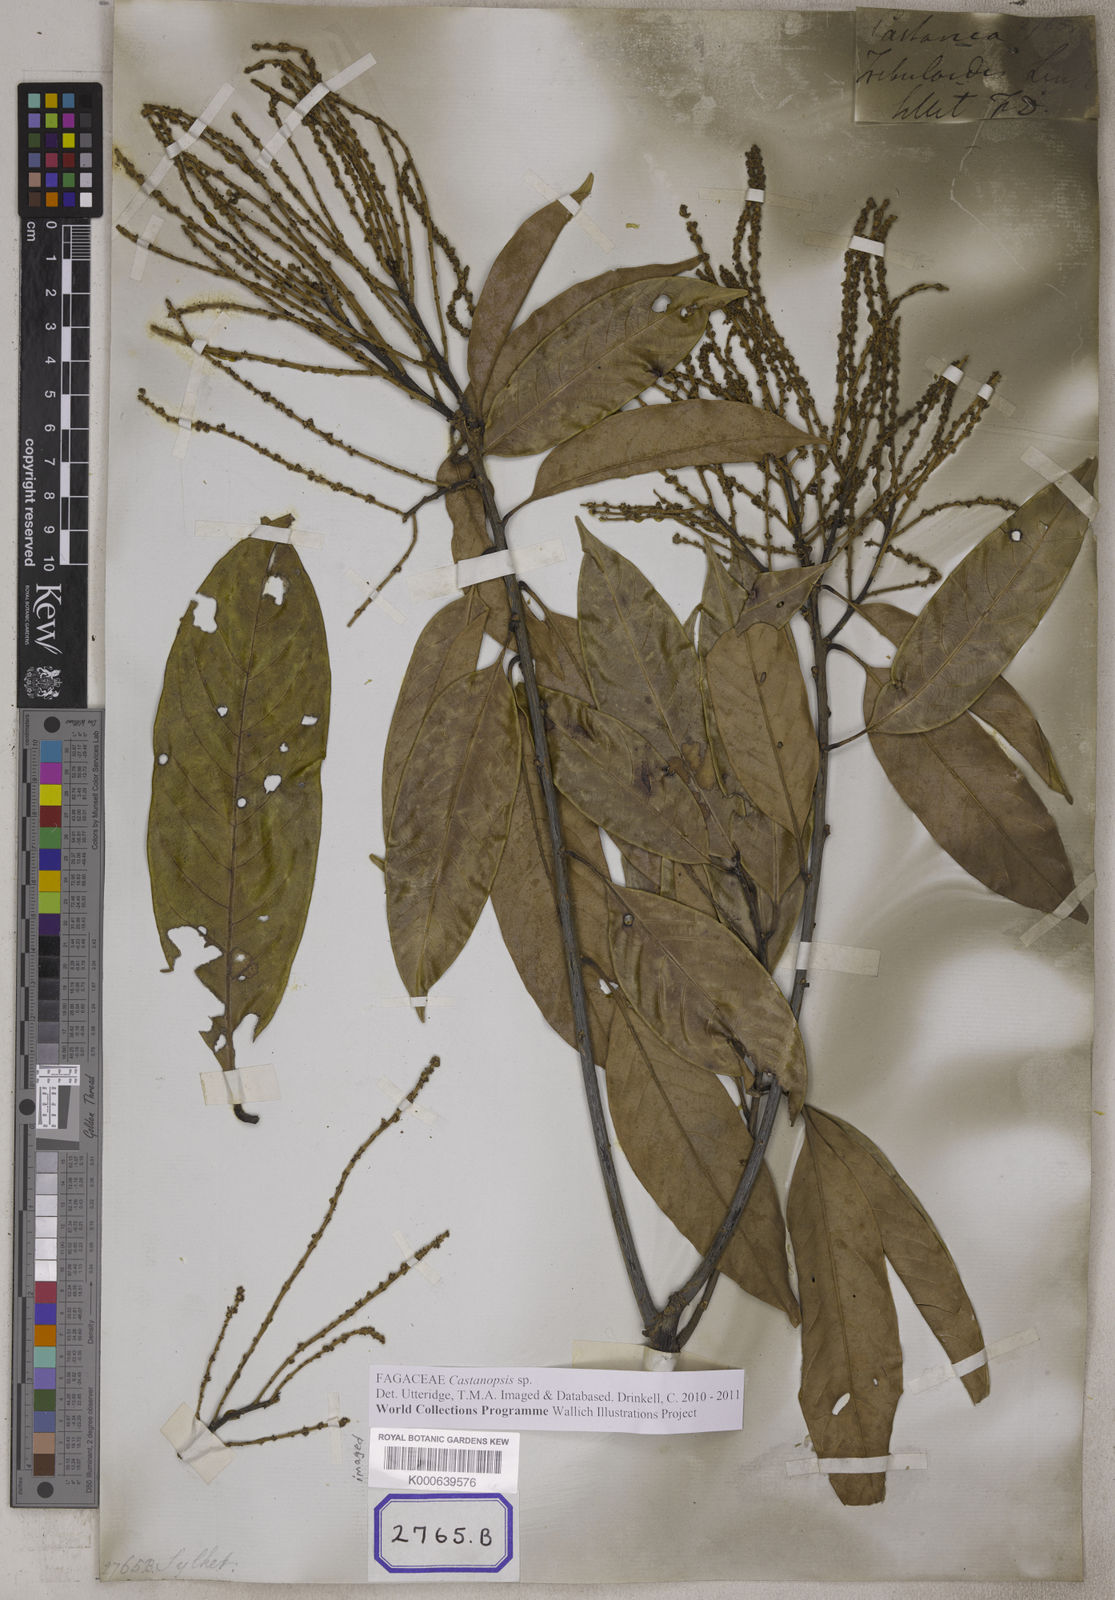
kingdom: Plantae
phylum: Tracheophyta
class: Magnoliopsida
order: Fagales
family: Fagaceae
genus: Castanopsis
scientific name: Castanopsis tribuloides
